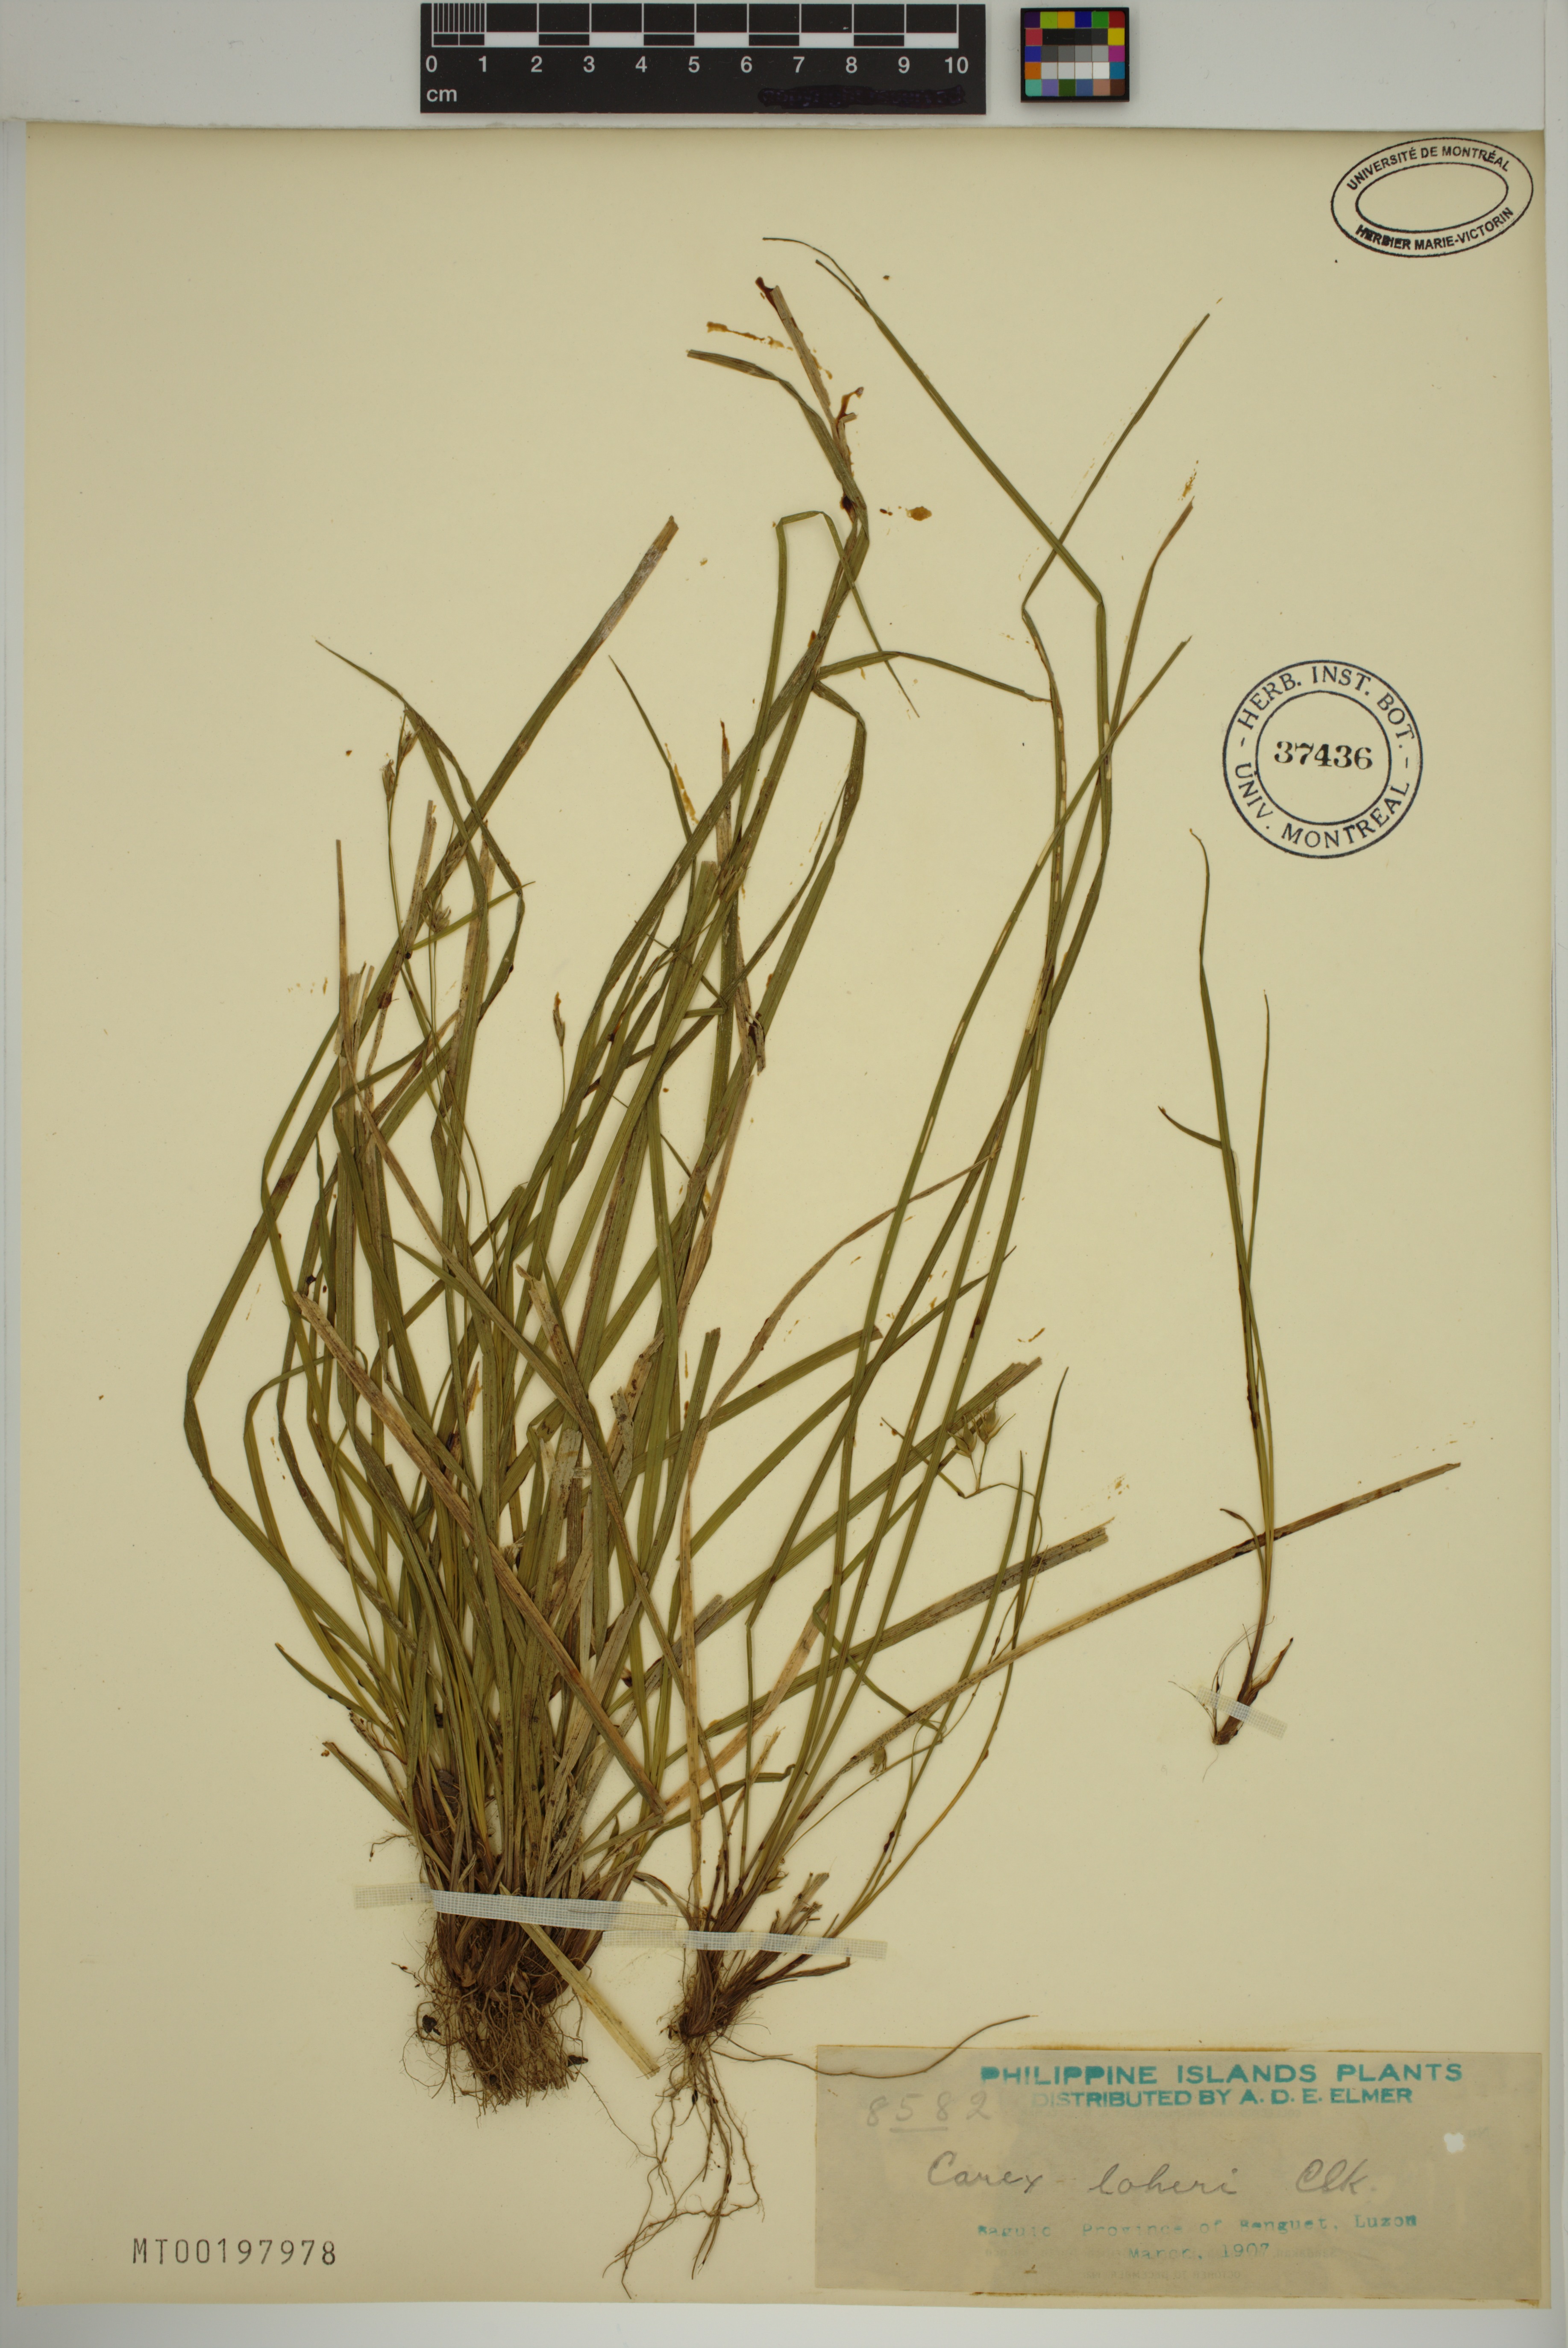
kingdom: Plantae
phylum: Tracheophyta
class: Liliopsida
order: Poales
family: Cyperaceae
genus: Carex
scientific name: Carex oxyphylla
